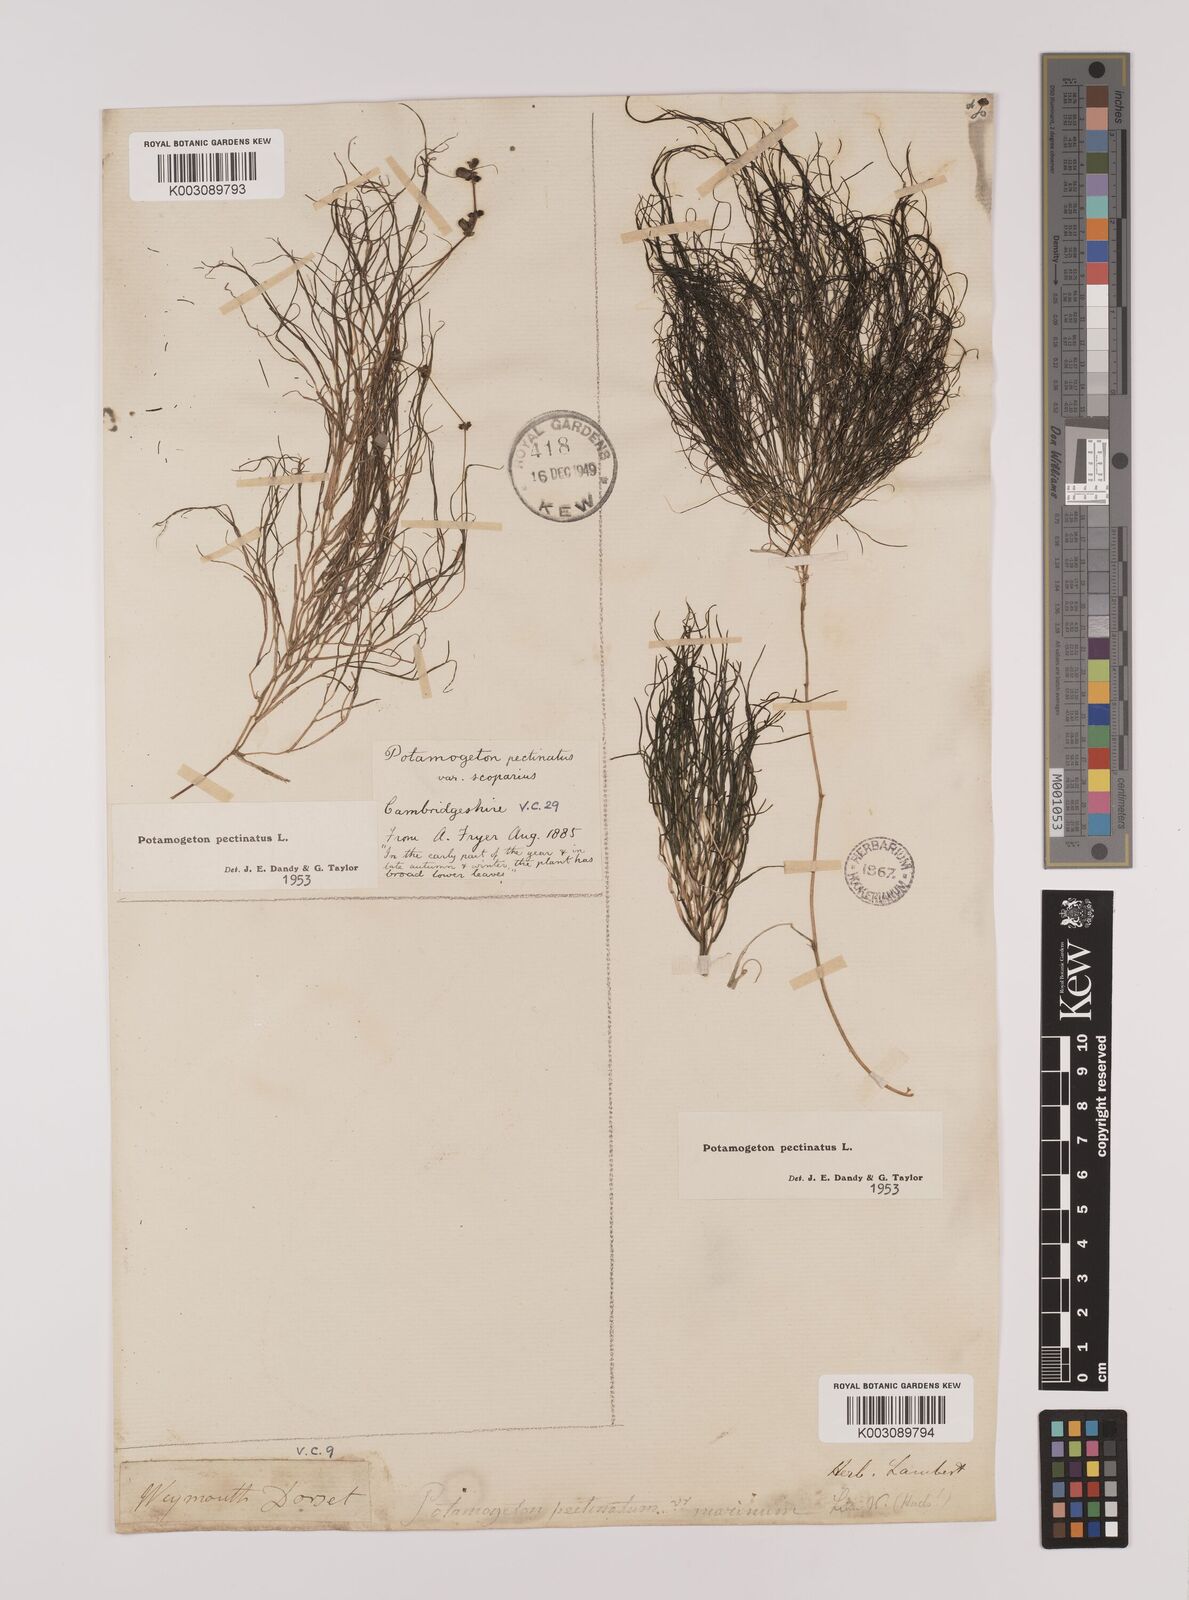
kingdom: Plantae
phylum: Tracheophyta
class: Liliopsida
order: Alismatales
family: Potamogetonaceae
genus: Stuckenia
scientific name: Stuckenia pectinata
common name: Sago pondweed
